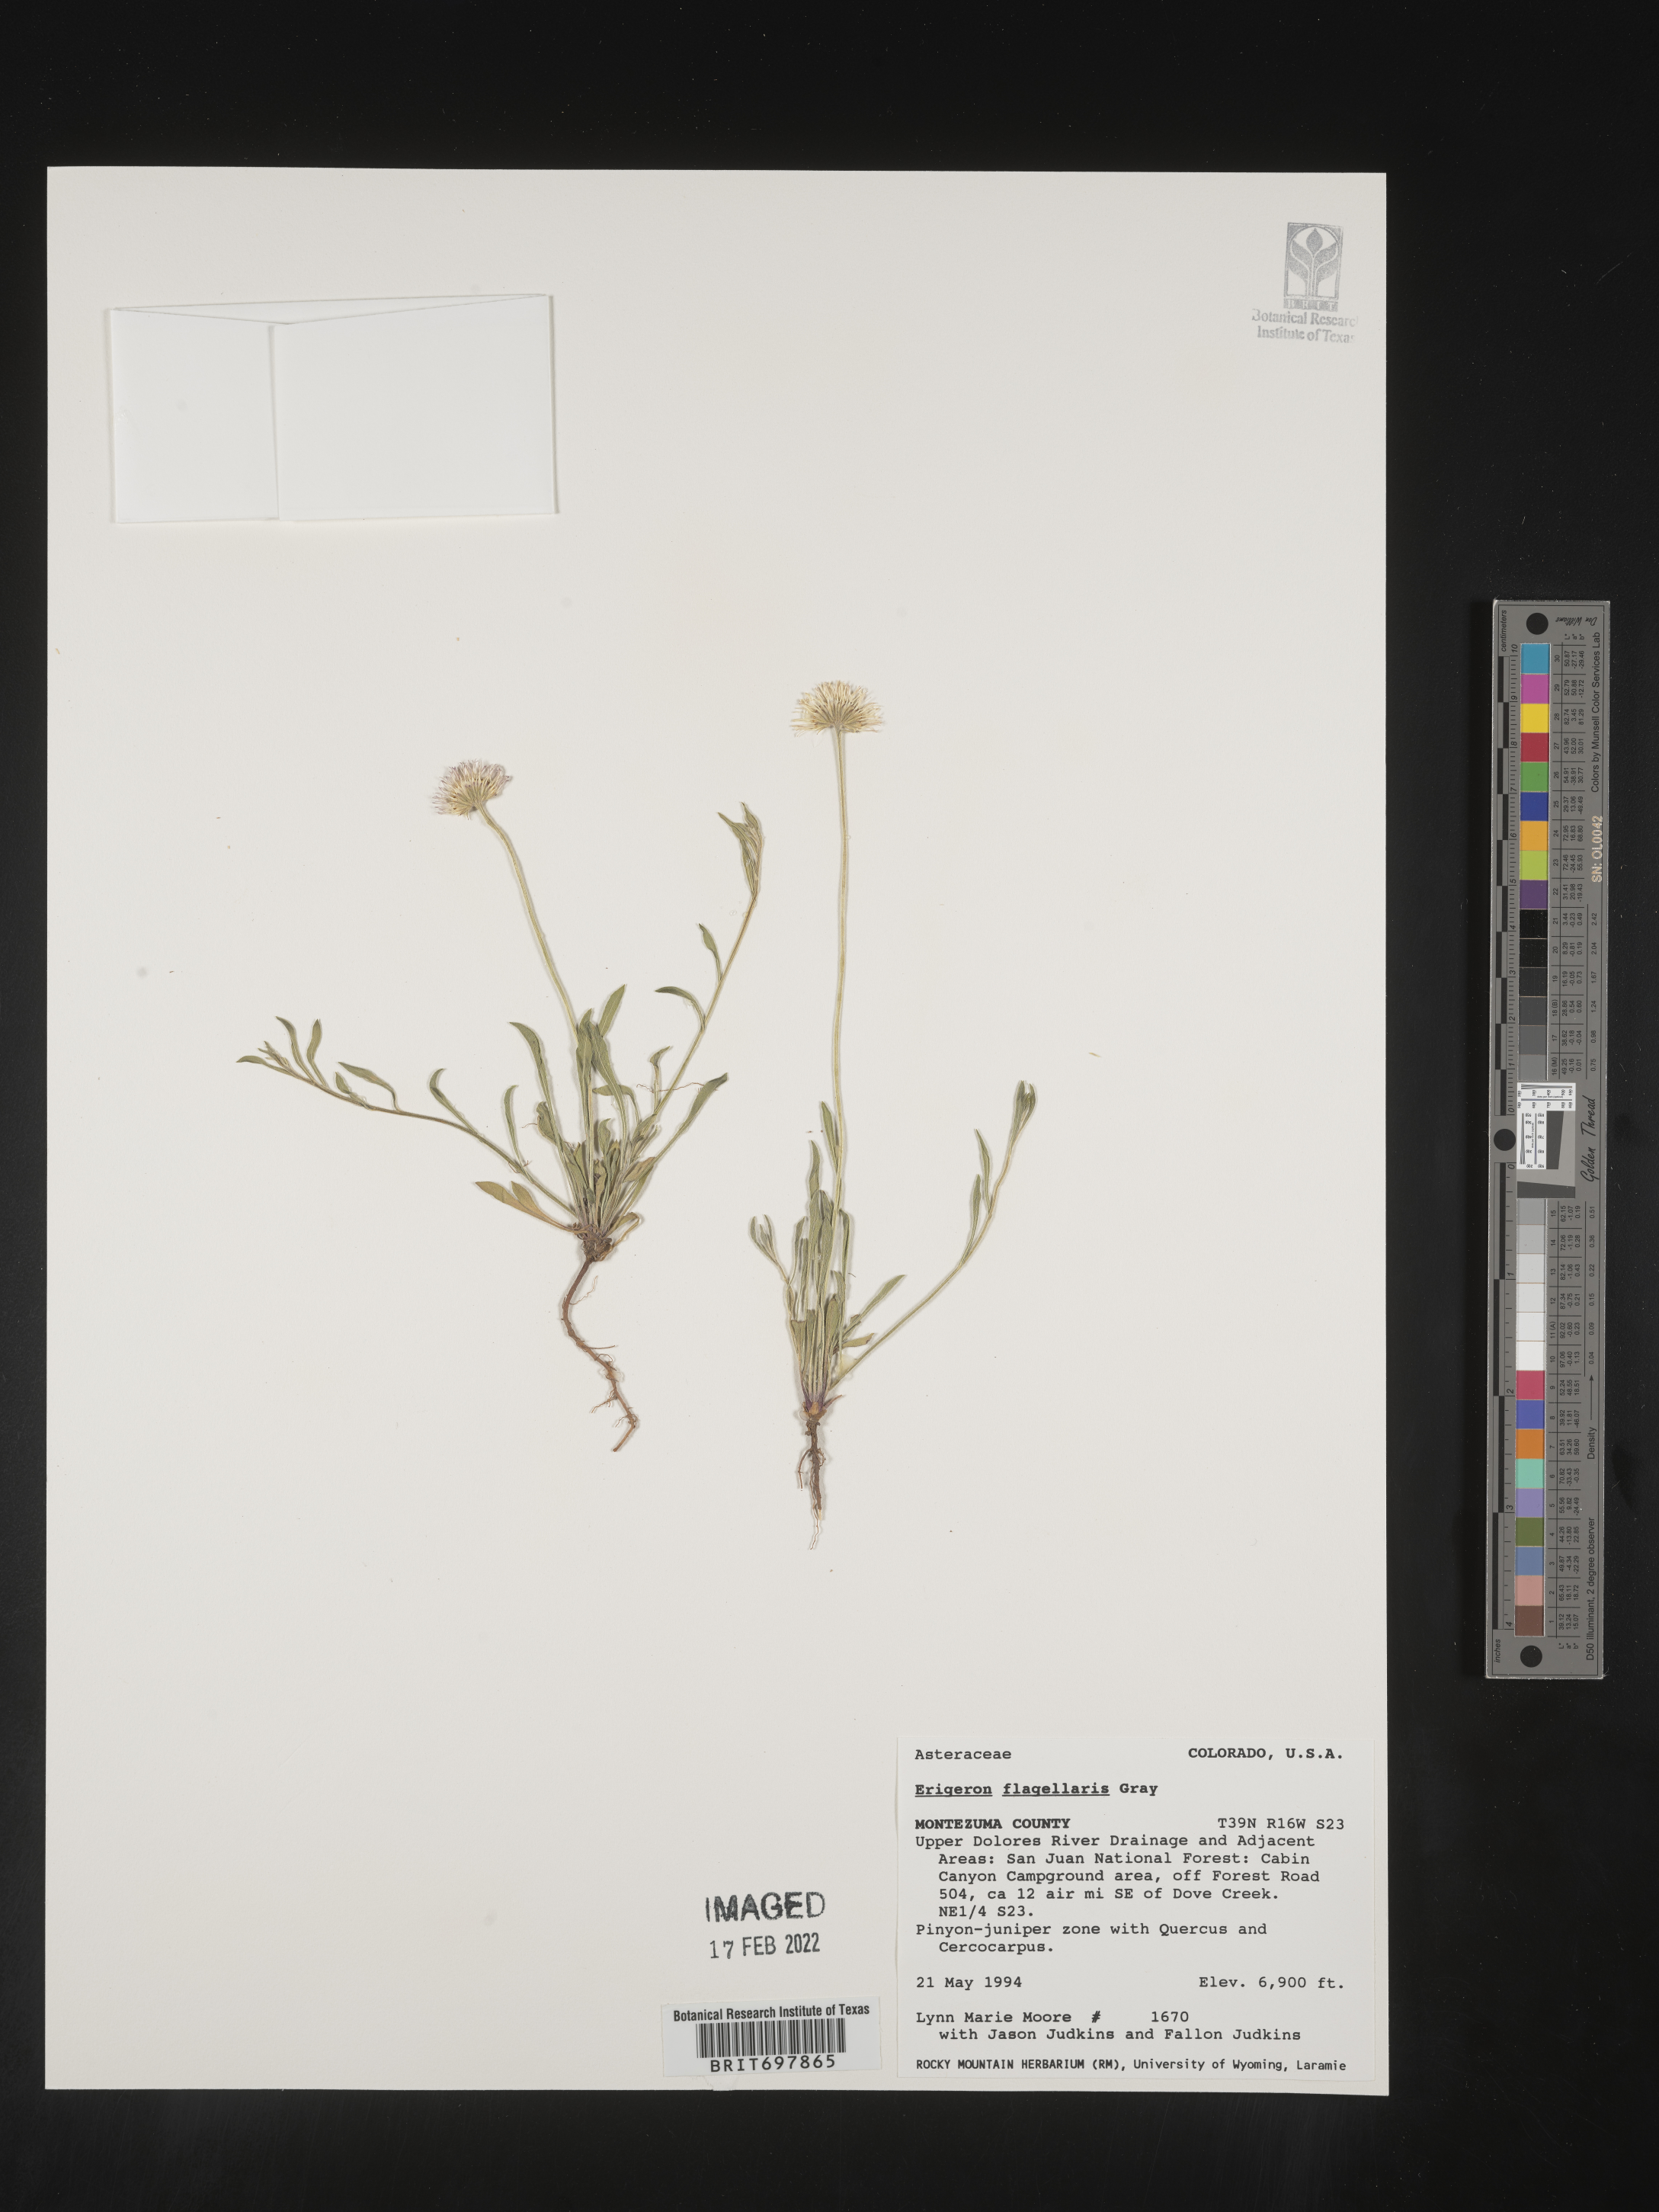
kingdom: Plantae
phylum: Tracheophyta
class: Magnoliopsida
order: Asterales
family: Asteraceae
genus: Erigeron
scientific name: Erigeron flagellaris
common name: Running fleabane
